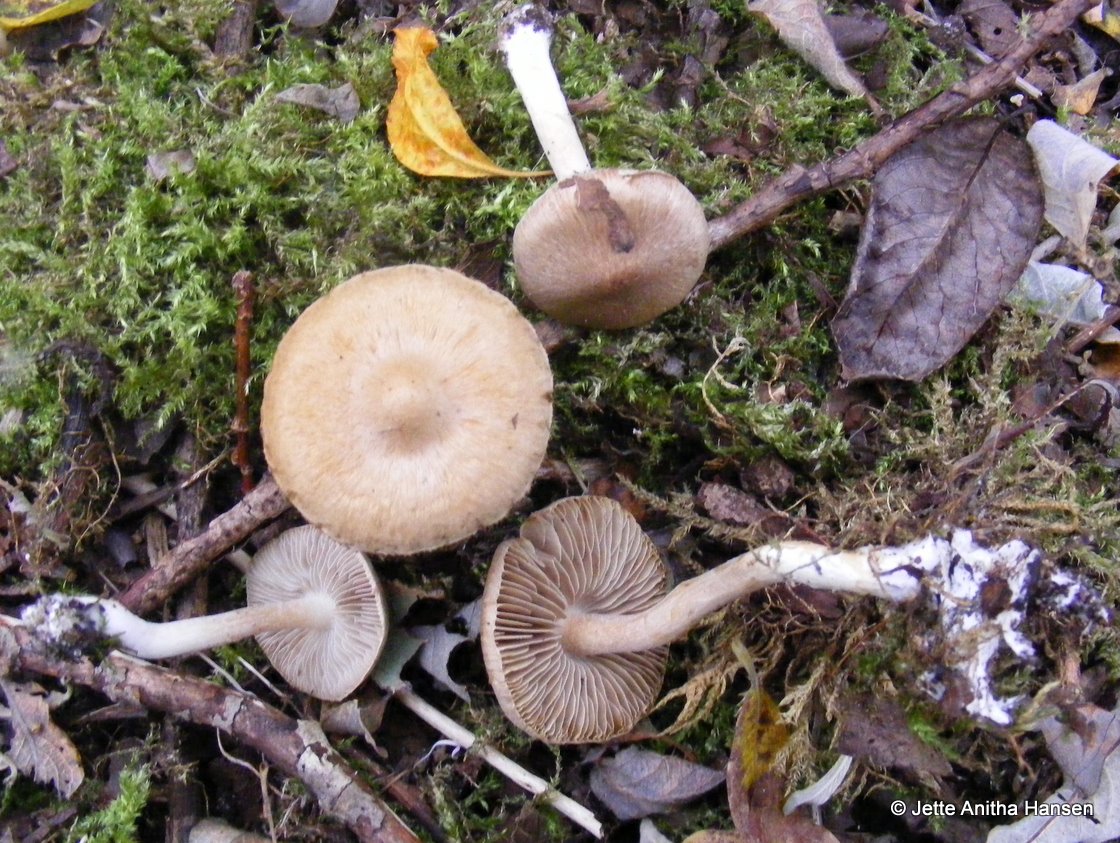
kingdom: Fungi
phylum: Basidiomycota
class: Agaricomycetes
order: Agaricales
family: Inocybaceae
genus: Inocybe
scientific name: Inocybe
